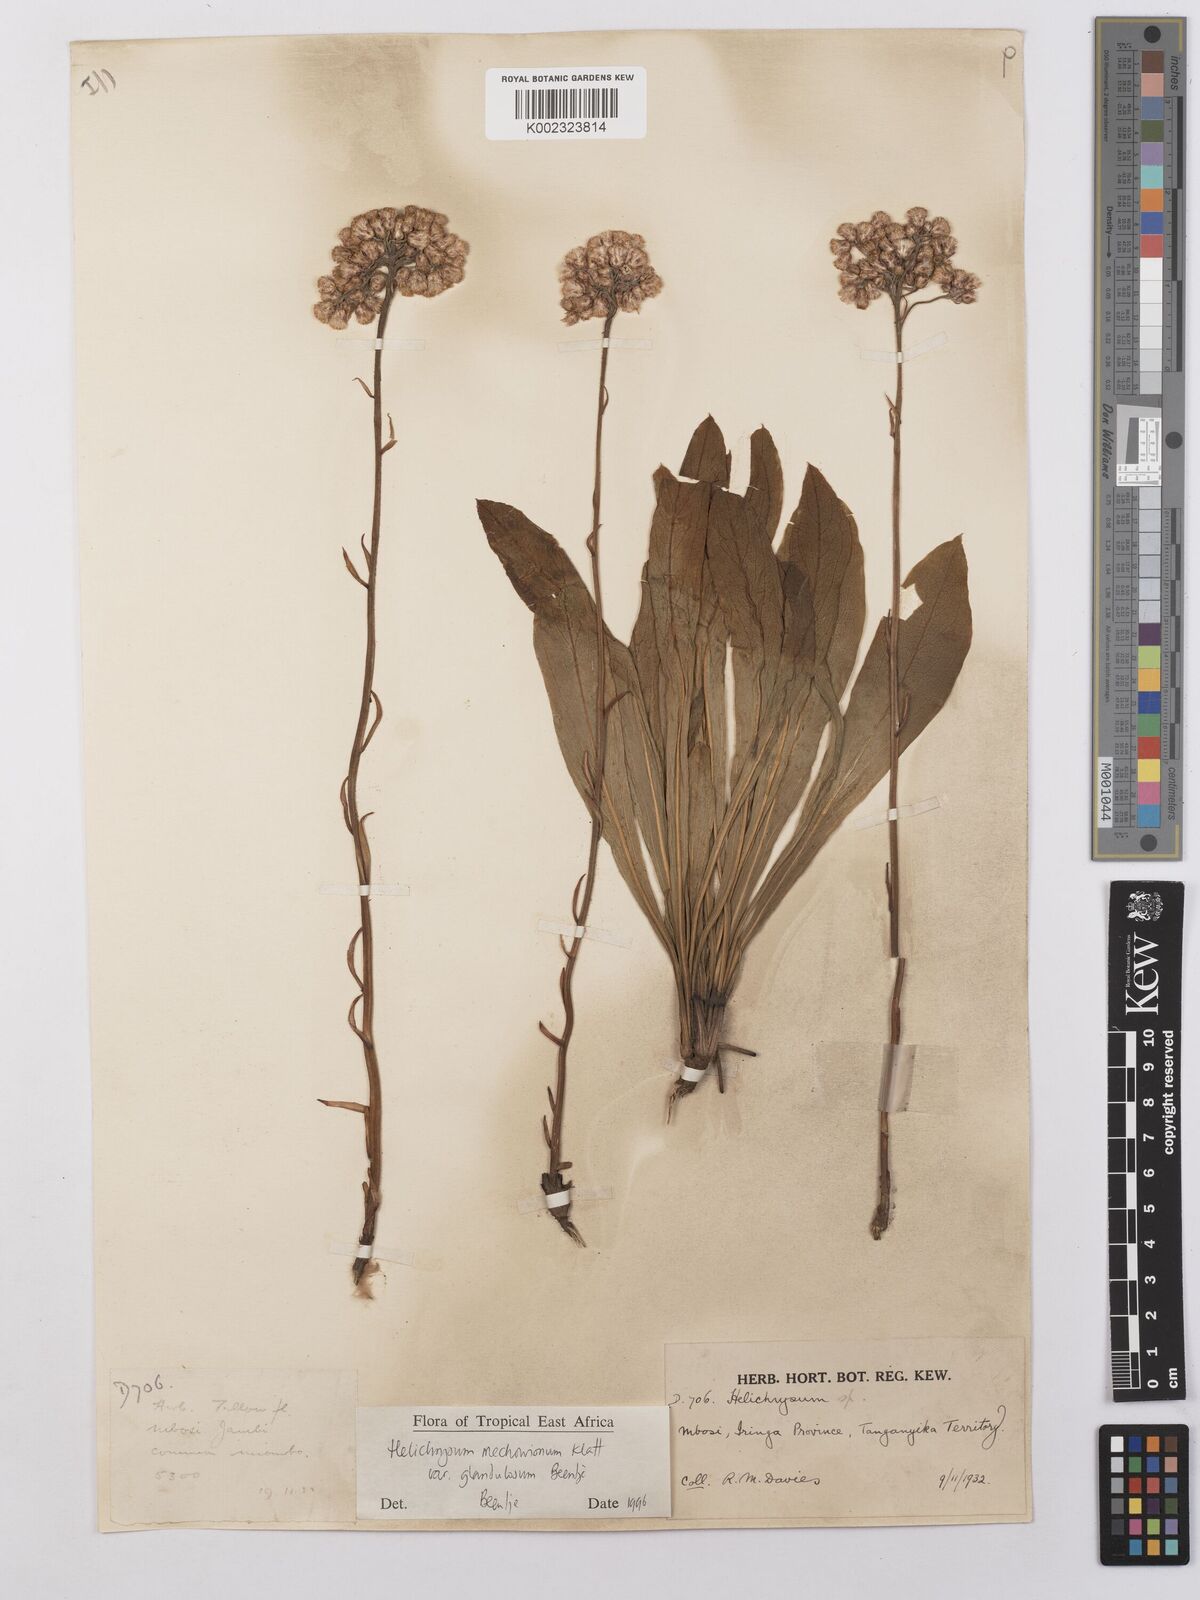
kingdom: Plantae
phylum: Tracheophyta
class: Magnoliopsida
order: Asterales
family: Asteraceae
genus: Helichrysum
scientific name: Helichrysum mechowianum
